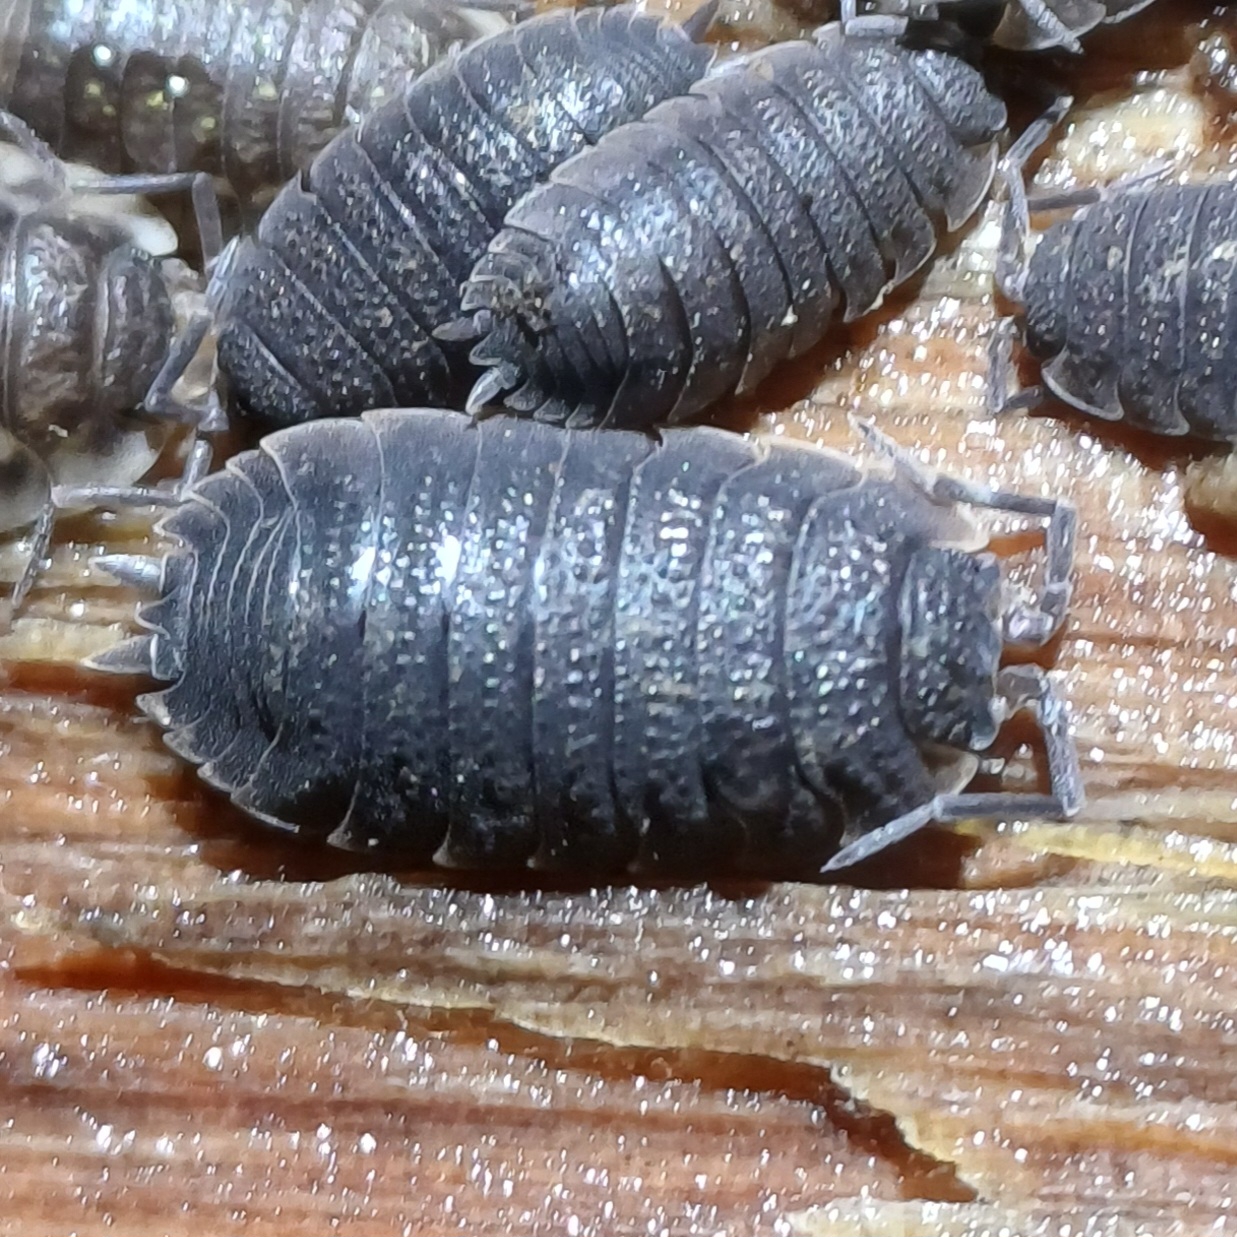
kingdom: Animalia
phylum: Arthropoda
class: Malacostraca
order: Isopoda
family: Porcellionidae
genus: Porcellio
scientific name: Porcellio scaber
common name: Grå bænkebider
